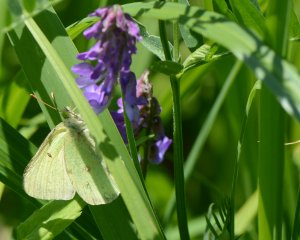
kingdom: Animalia
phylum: Arthropoda
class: Insecta
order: Lepidoptera
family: Pieridae
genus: Colias
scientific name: Colias philodice
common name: Clouded Sulphur
